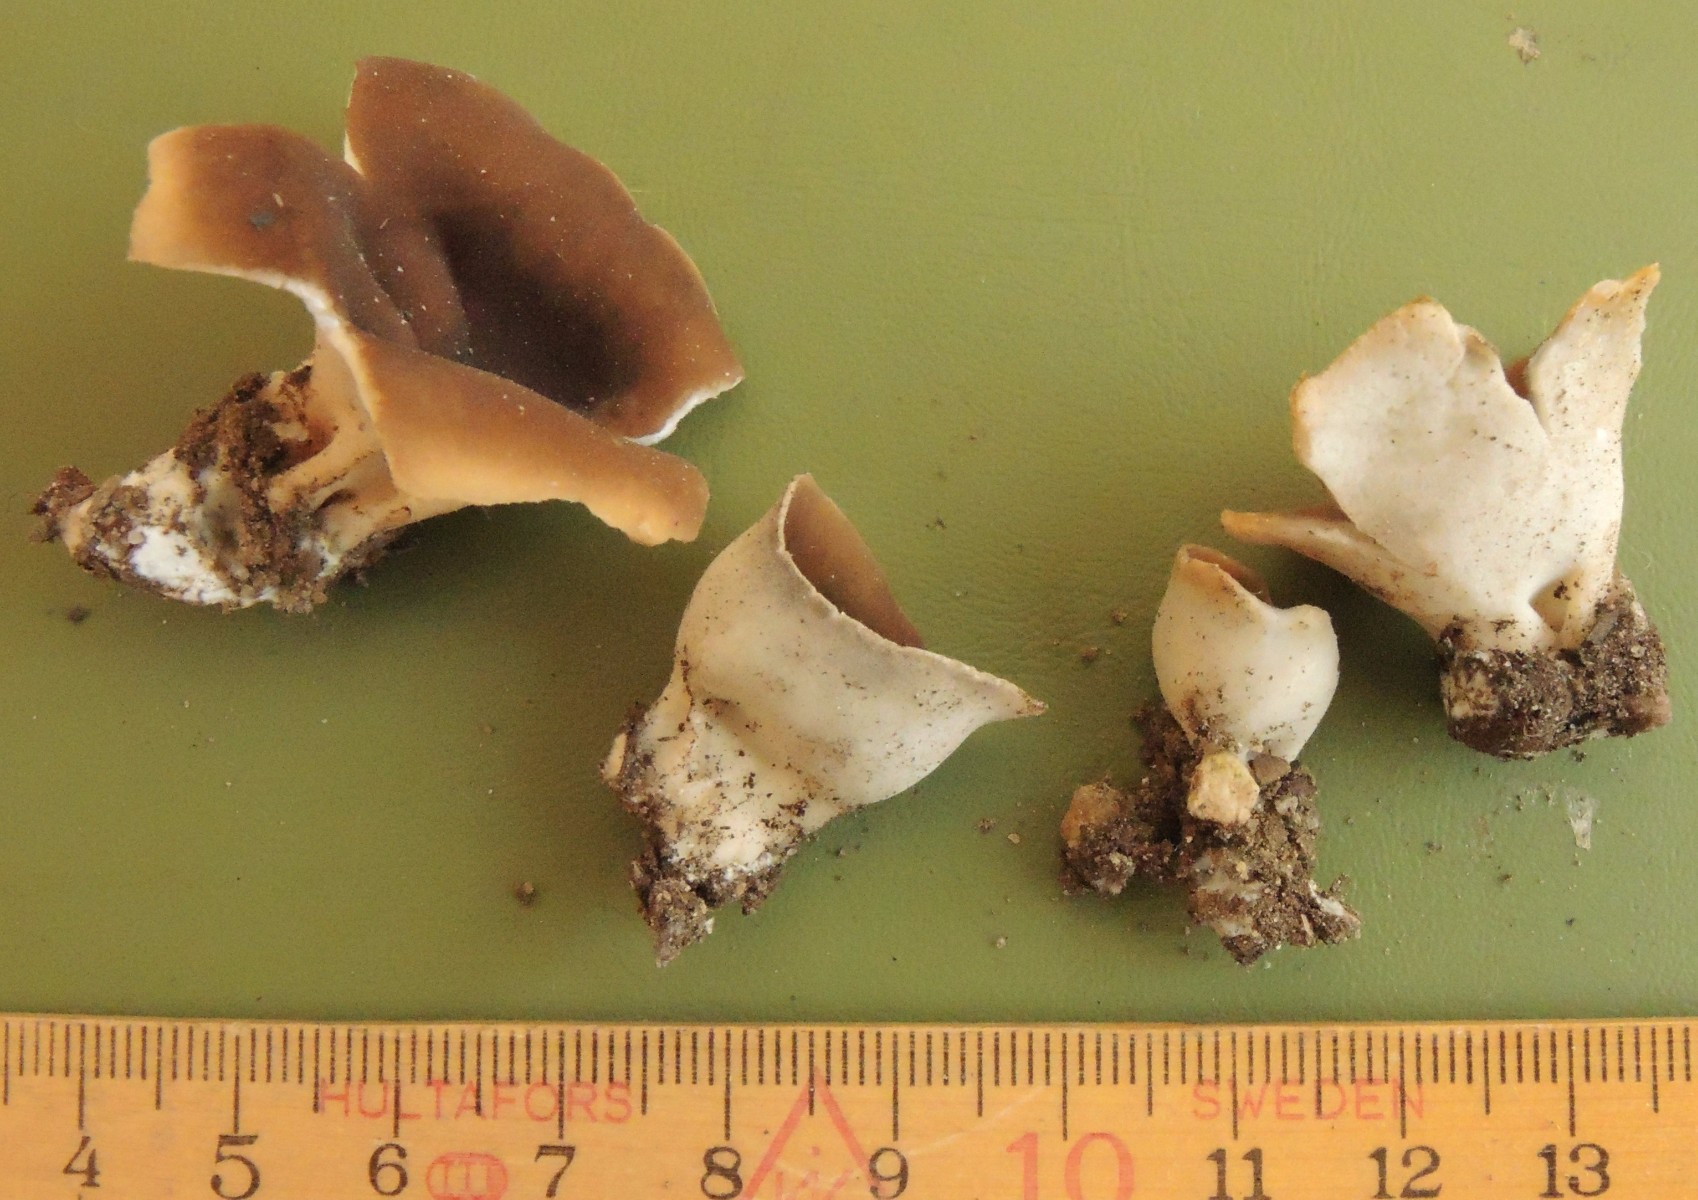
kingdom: Fungi
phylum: Ascomycota
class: Pezizomycetes
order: Pezizales
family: Helvellaceae
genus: Dissingia
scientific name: Dissingia confusa
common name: gran-foldhat
